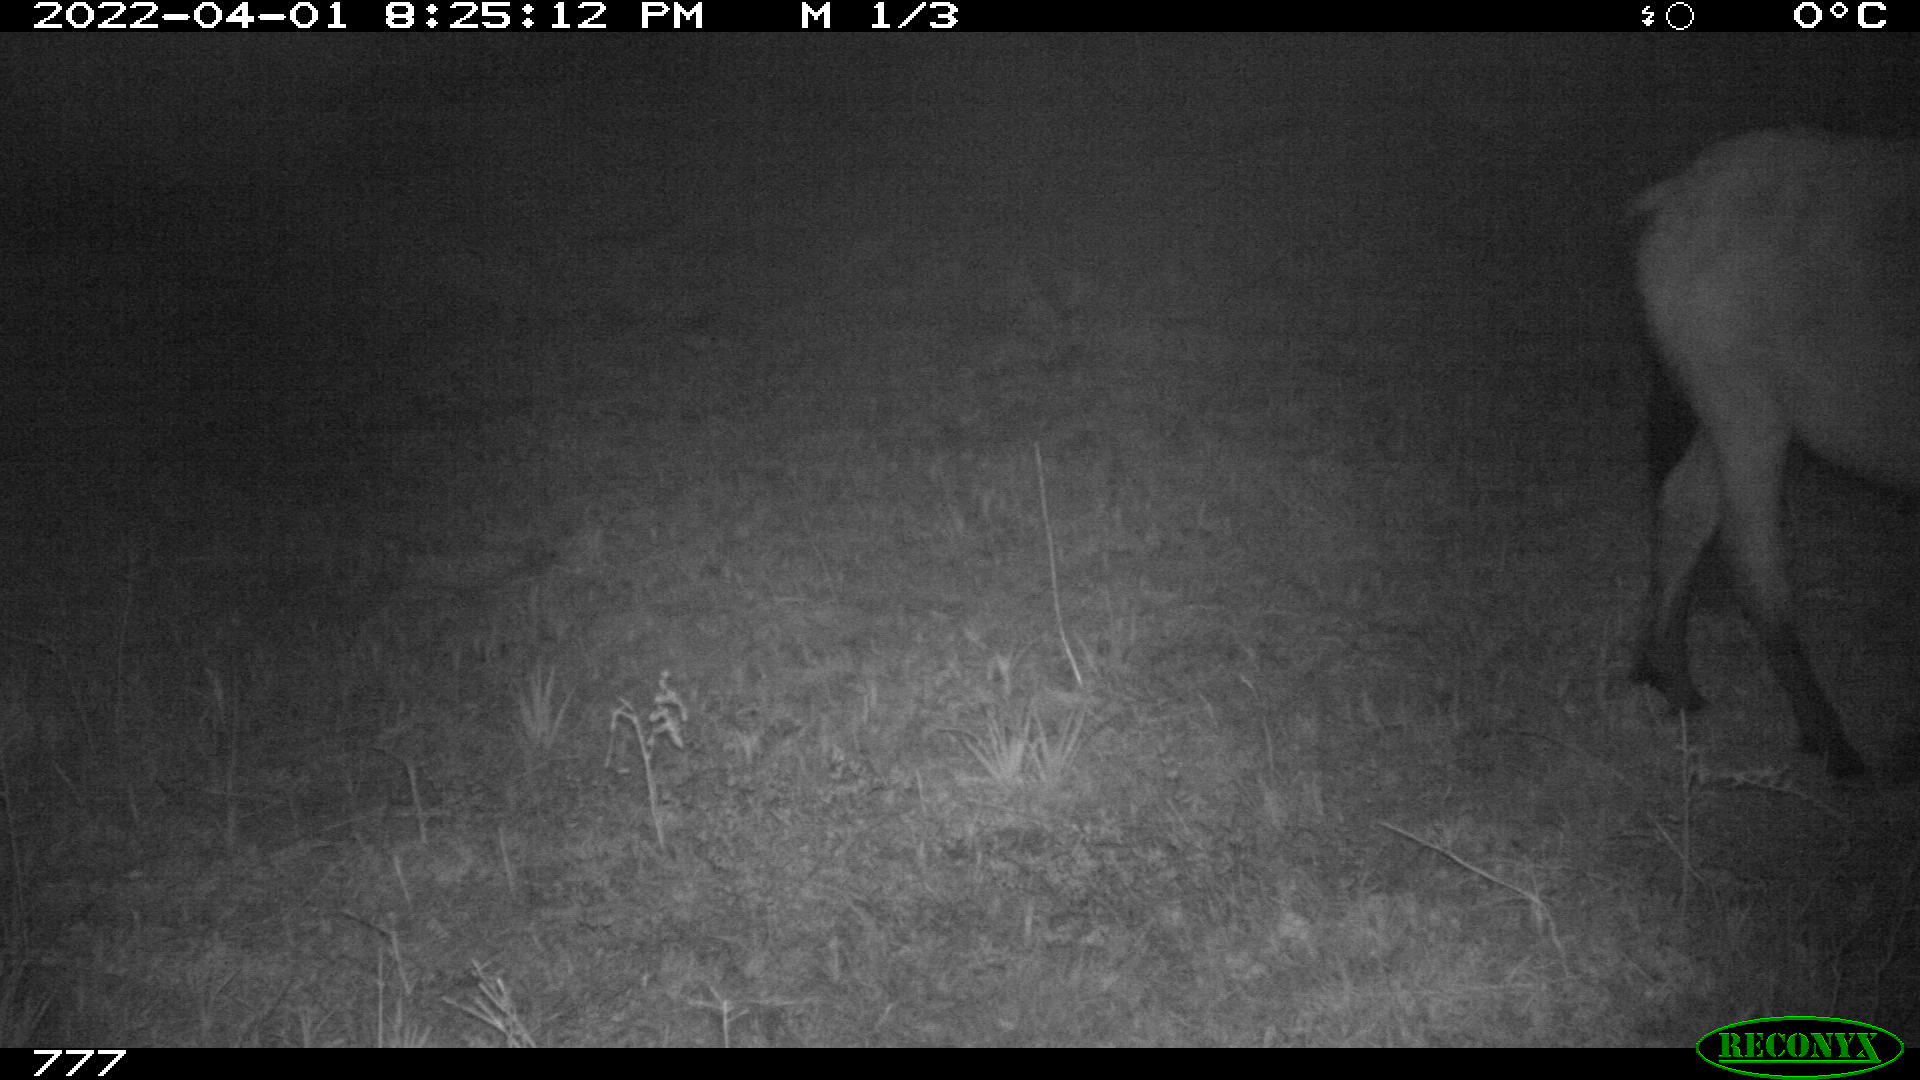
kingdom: Animalia
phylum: Chordata
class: Mammalia
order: Perissodactyla
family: Equidae
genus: Equus
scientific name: Equus caballus
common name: Horse
